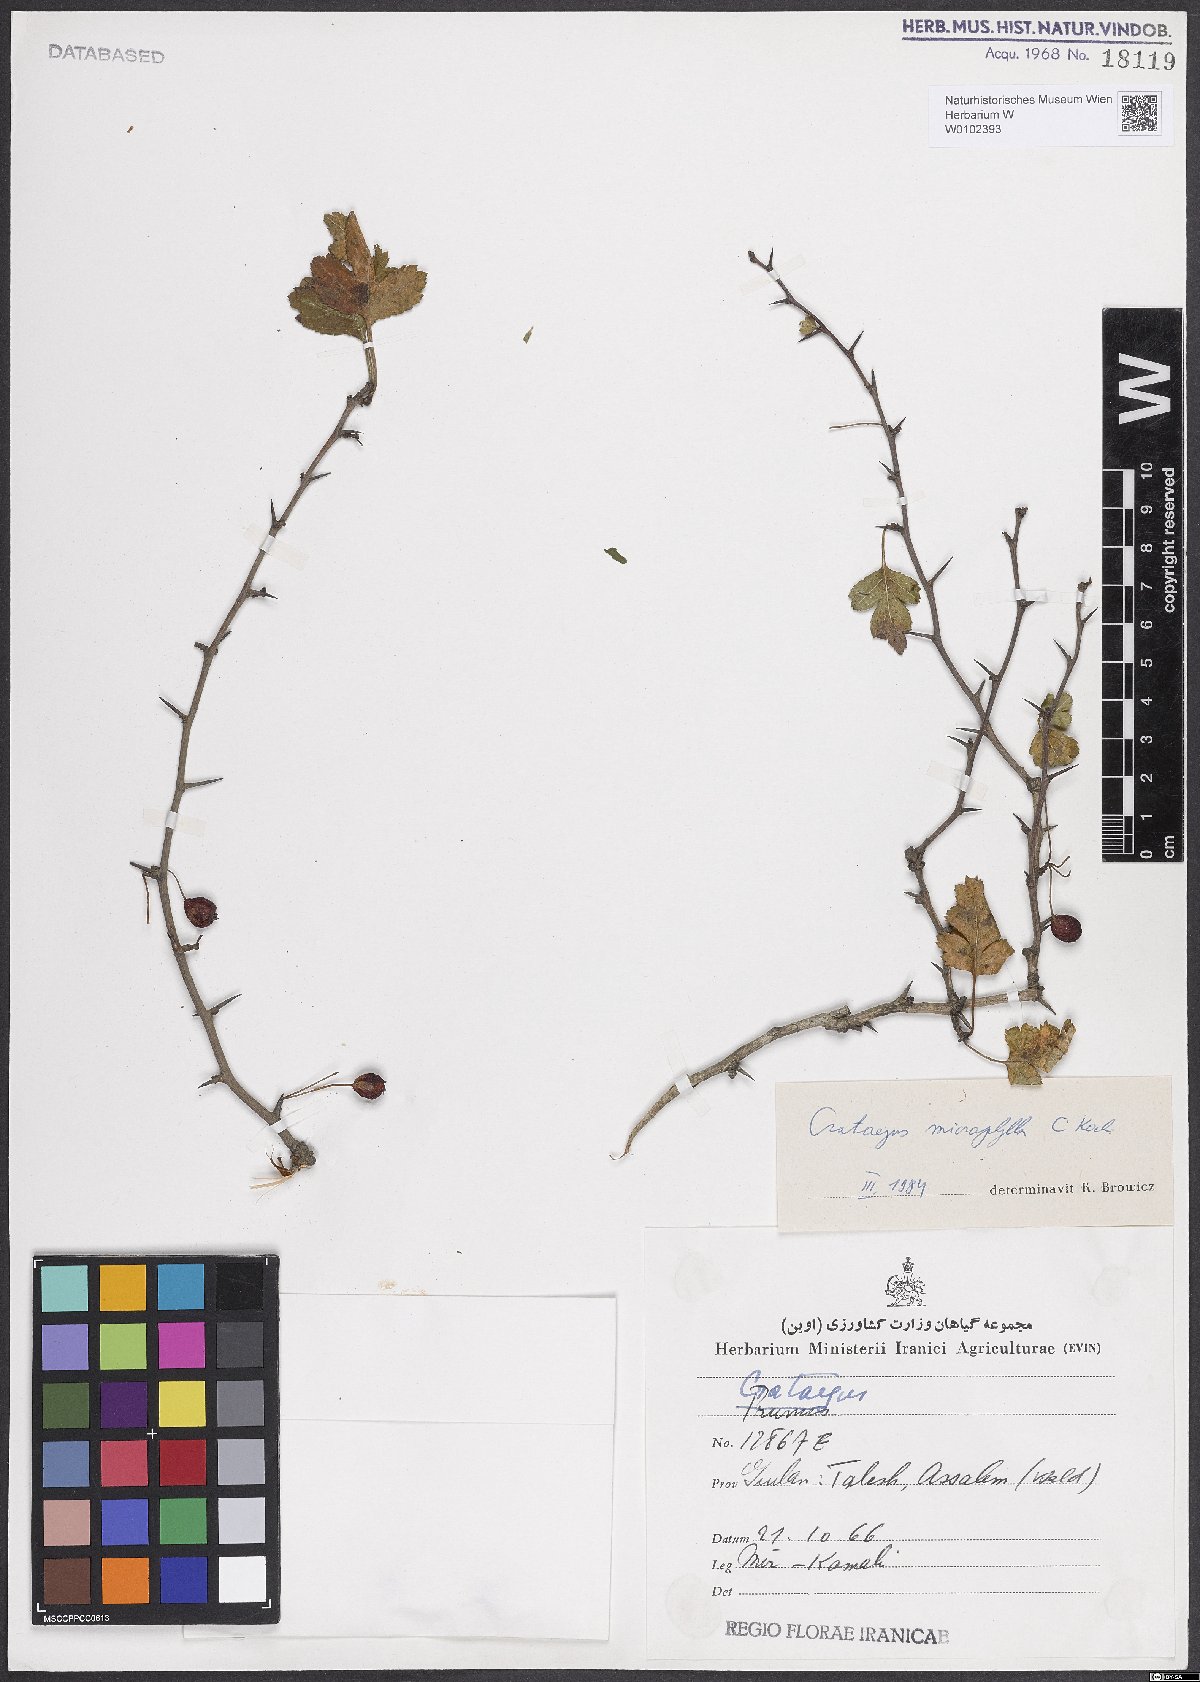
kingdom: Plantae
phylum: Tracheophyta
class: Magnoliopsida
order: Rosales
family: Rosaceae
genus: Crataegus
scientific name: Crataegus microphylla
